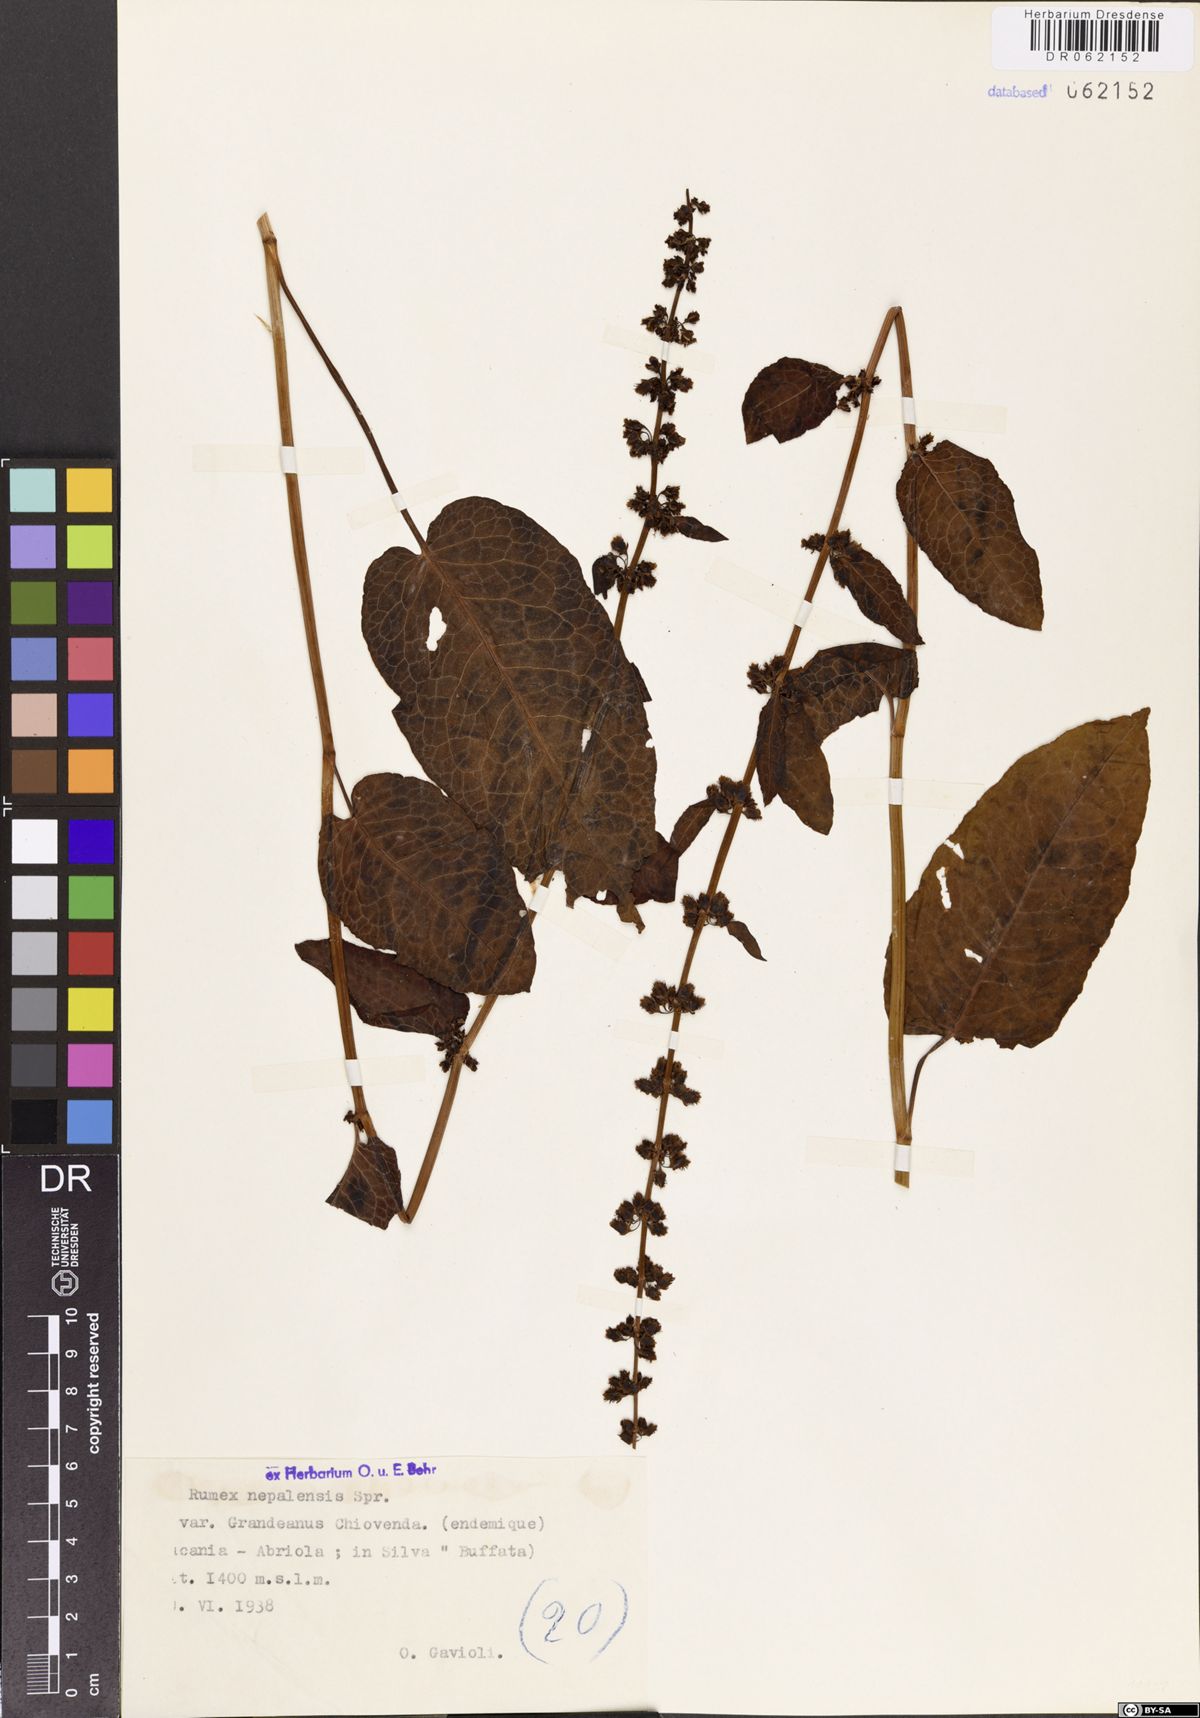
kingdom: Plantae
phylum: Tracheophyta
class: Magnoliopsida
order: Caryophyllales
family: Polygonaceae
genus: Rumex
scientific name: Rumex nepalensis
